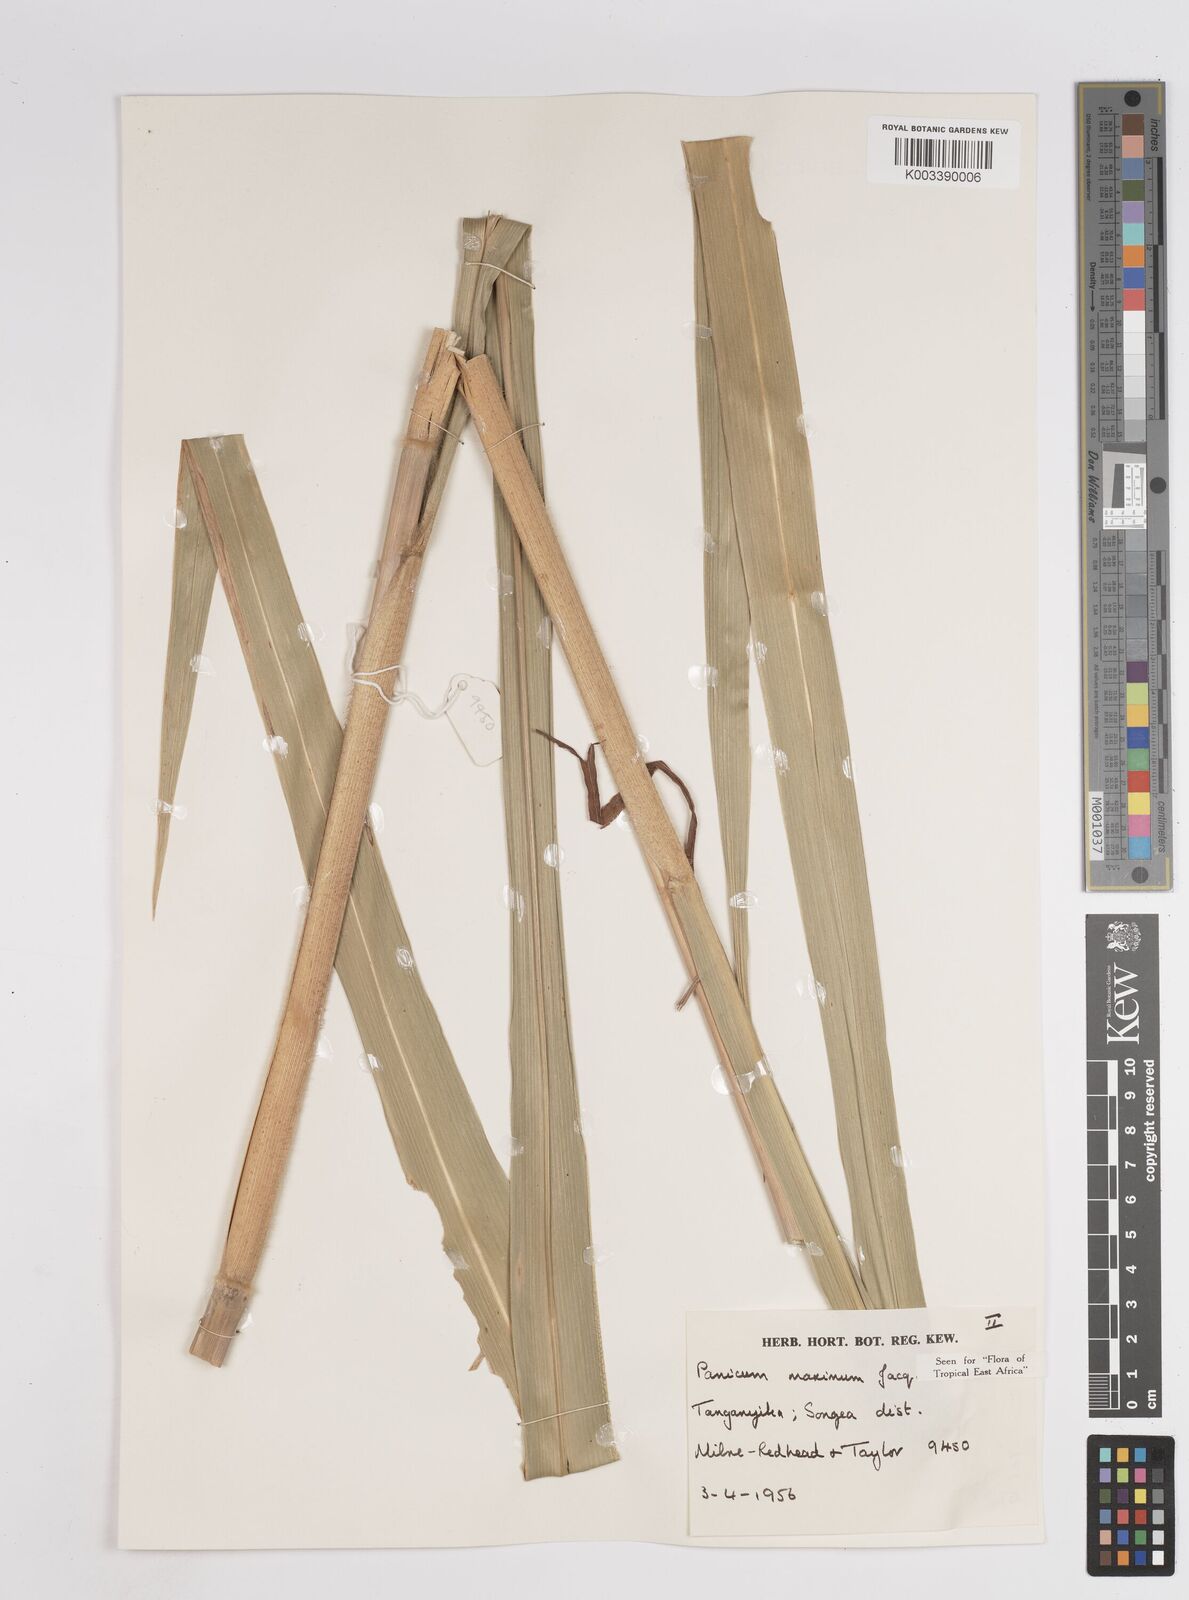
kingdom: Plantae
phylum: Tracheophyta
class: Liliopsida
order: Poales
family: Poaceae
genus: Megathyrsus
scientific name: Megathyrsus maximus
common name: Guineagrass
